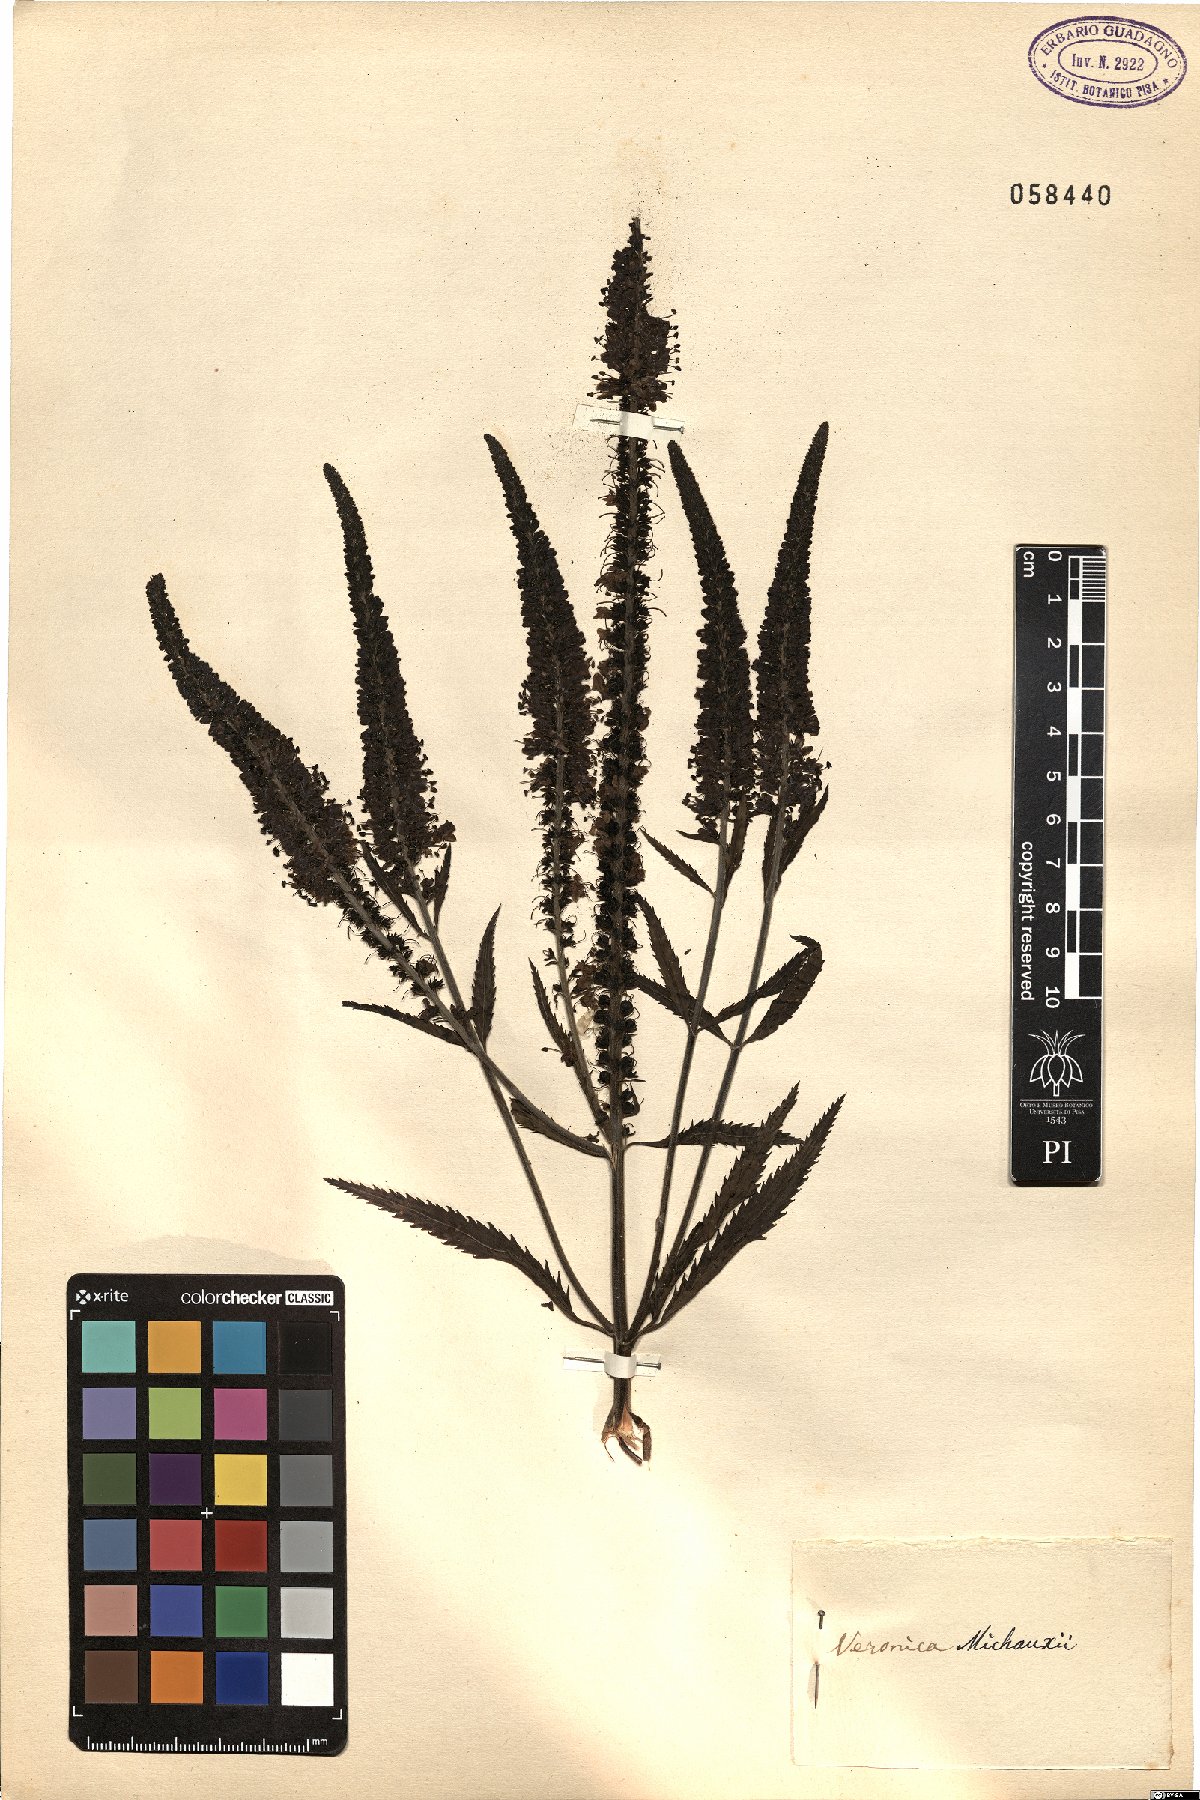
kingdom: Plantae
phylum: Tracheophyta
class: Magnoliopsida
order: Lamiales
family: Plantaginaceae
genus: Veronica
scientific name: Veronica michauxii
